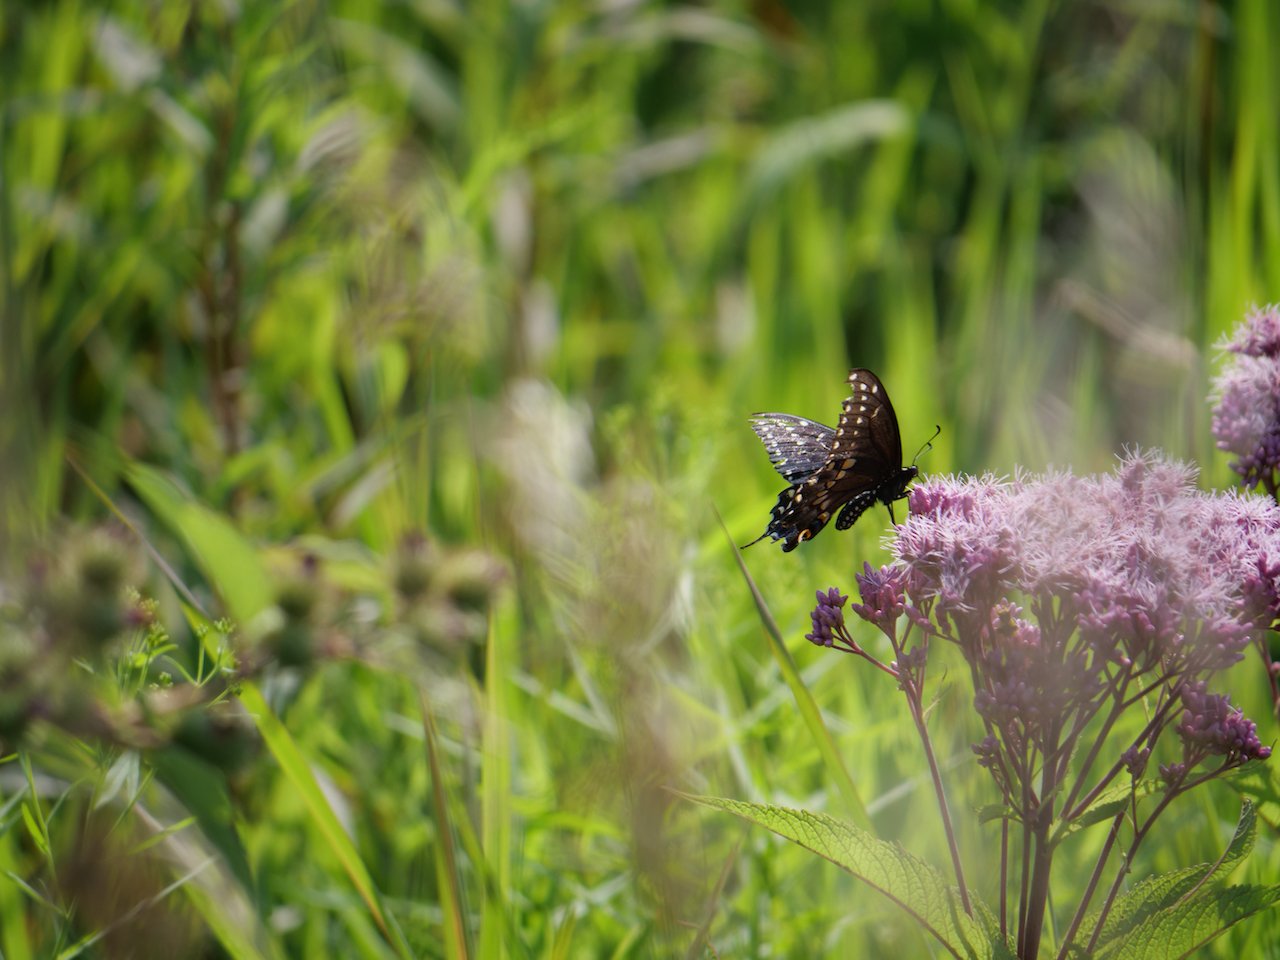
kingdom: Animalia
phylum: Arthropoda
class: Insecta
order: Lepidoptera
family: Papilionidae
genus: Papilio
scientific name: Papilio polyxenes
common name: Black Swallowtail
